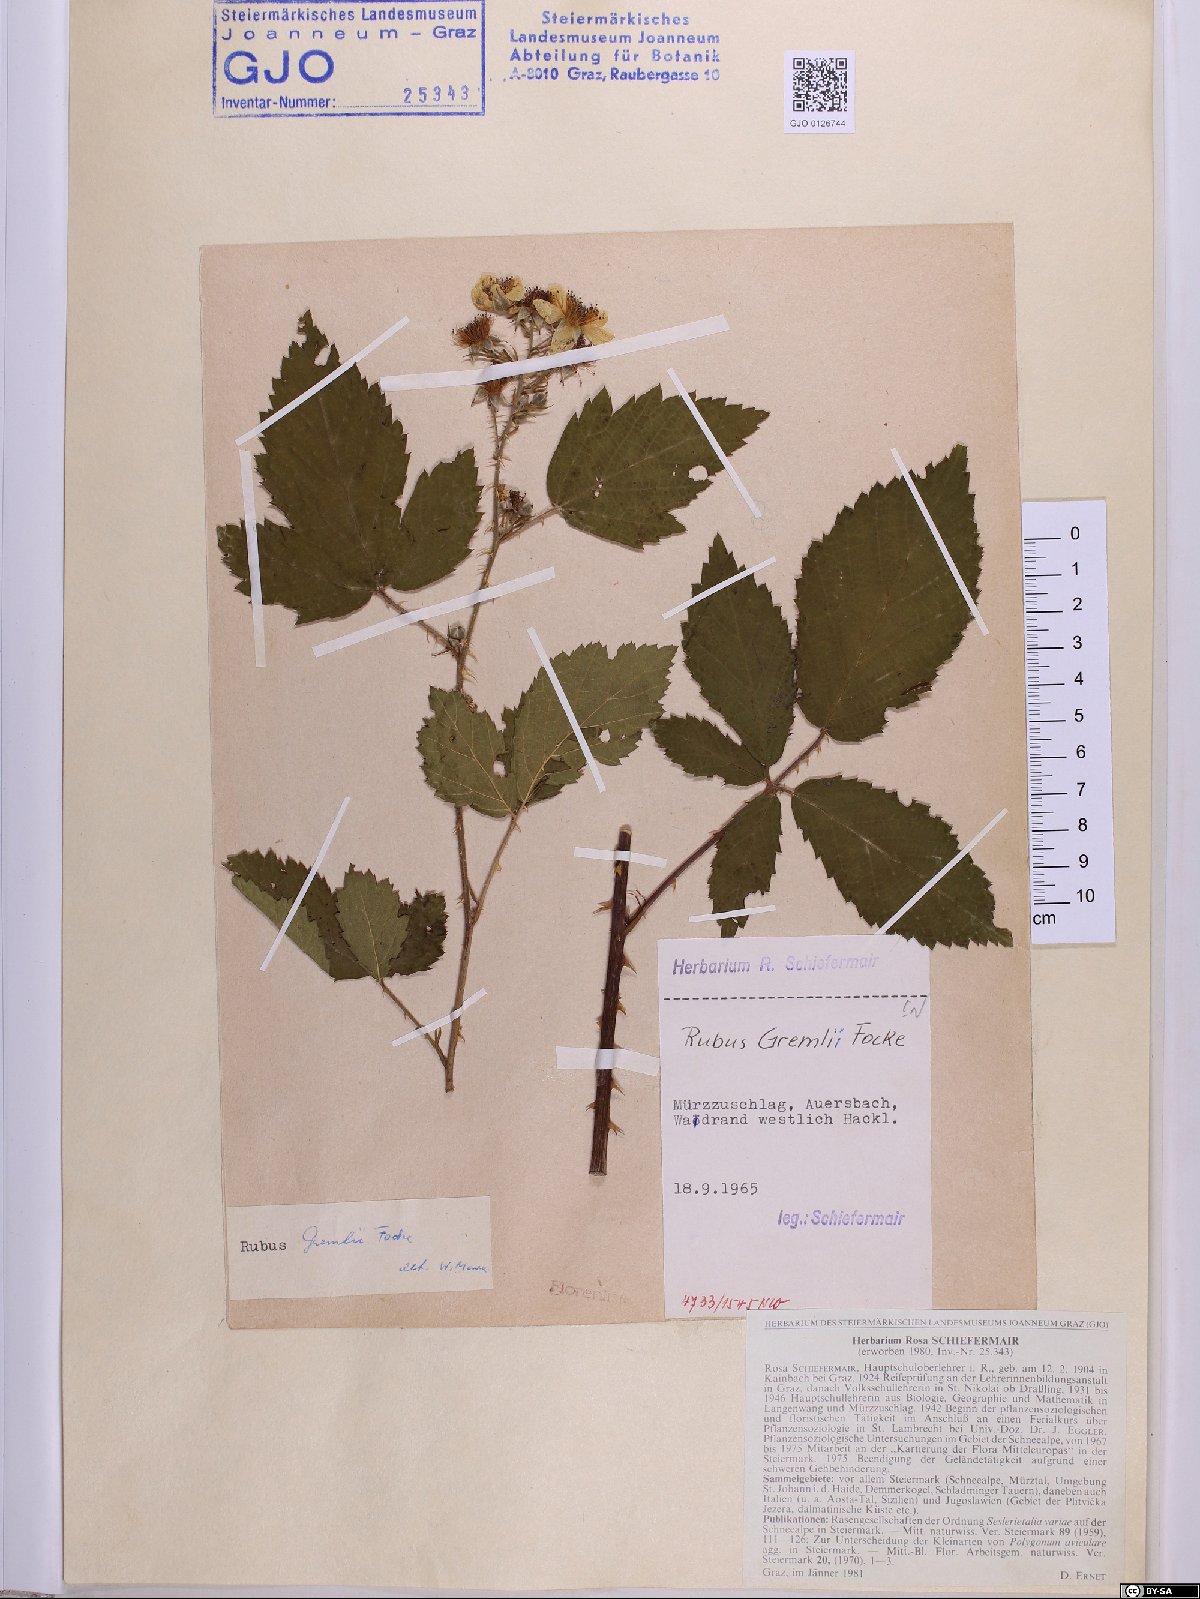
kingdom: Plantae
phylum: Tracheophyta
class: Magnoliopsida
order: Rosales
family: Rosaceae
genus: Rubus
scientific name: Rubus gremlii
